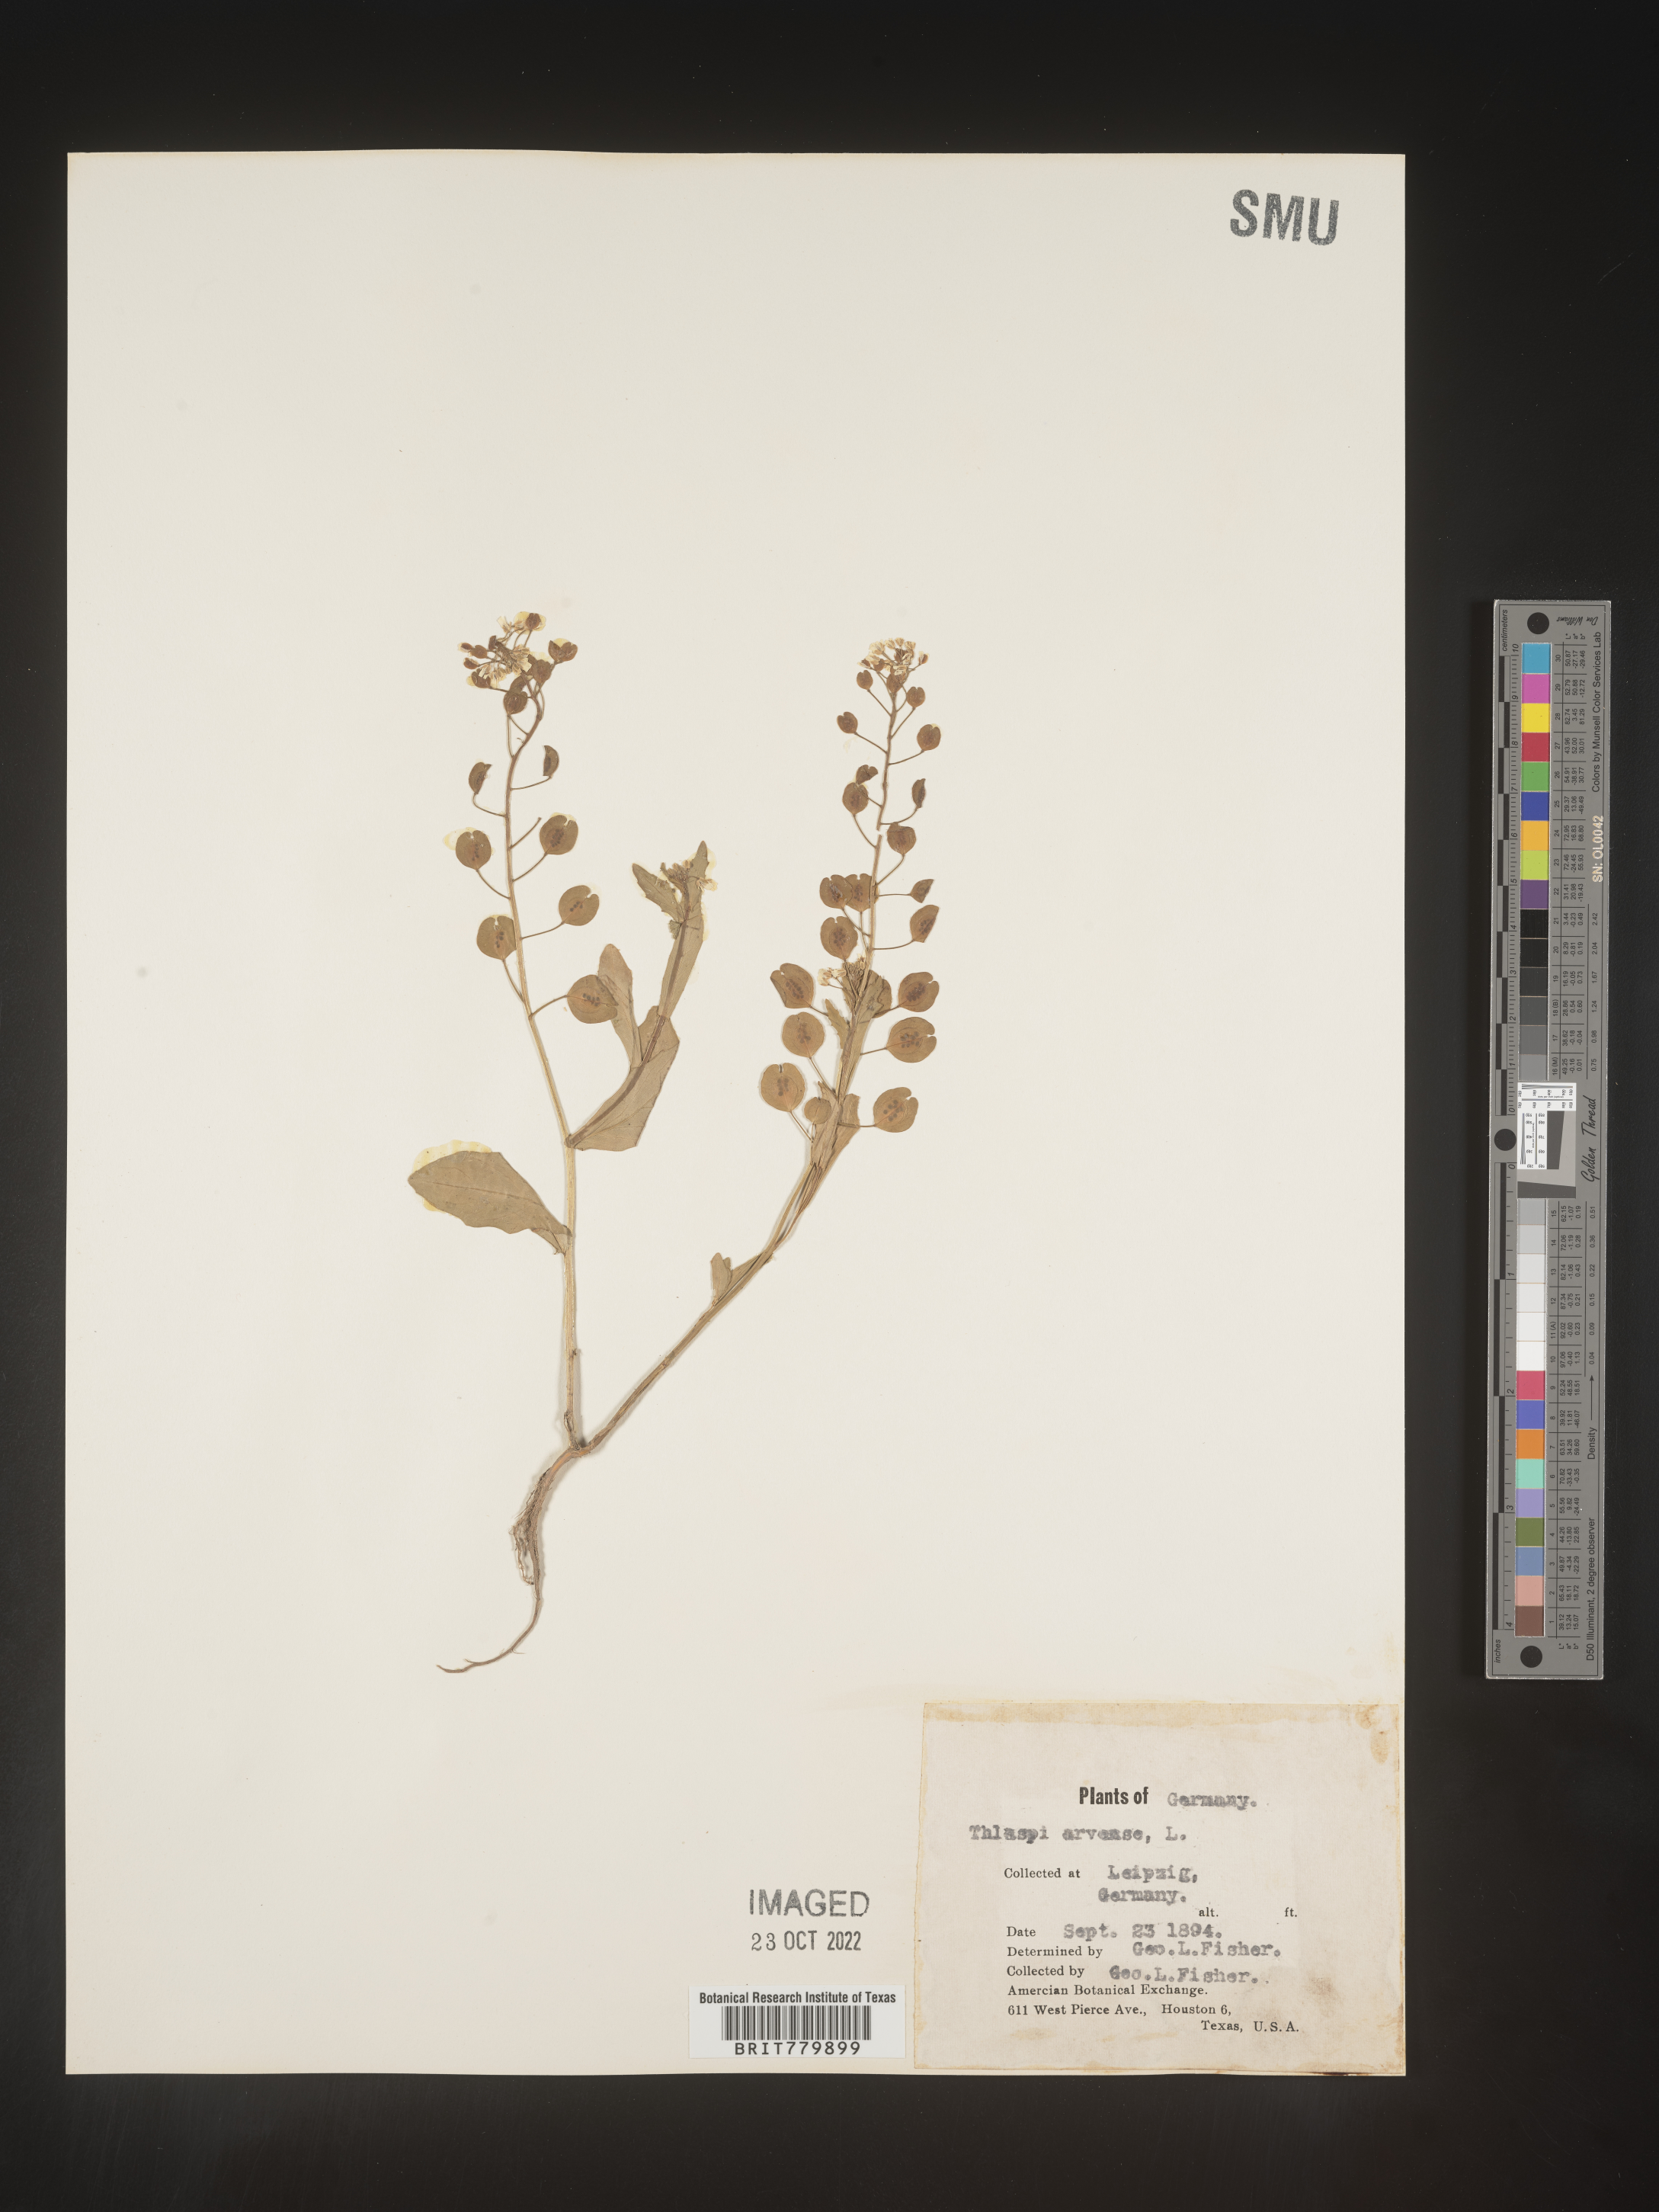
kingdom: Plantae
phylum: Tracheophyta
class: Magnoliopsida
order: Brassicales
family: Brassicaceae
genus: Thlaspi
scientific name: Thlaspi
